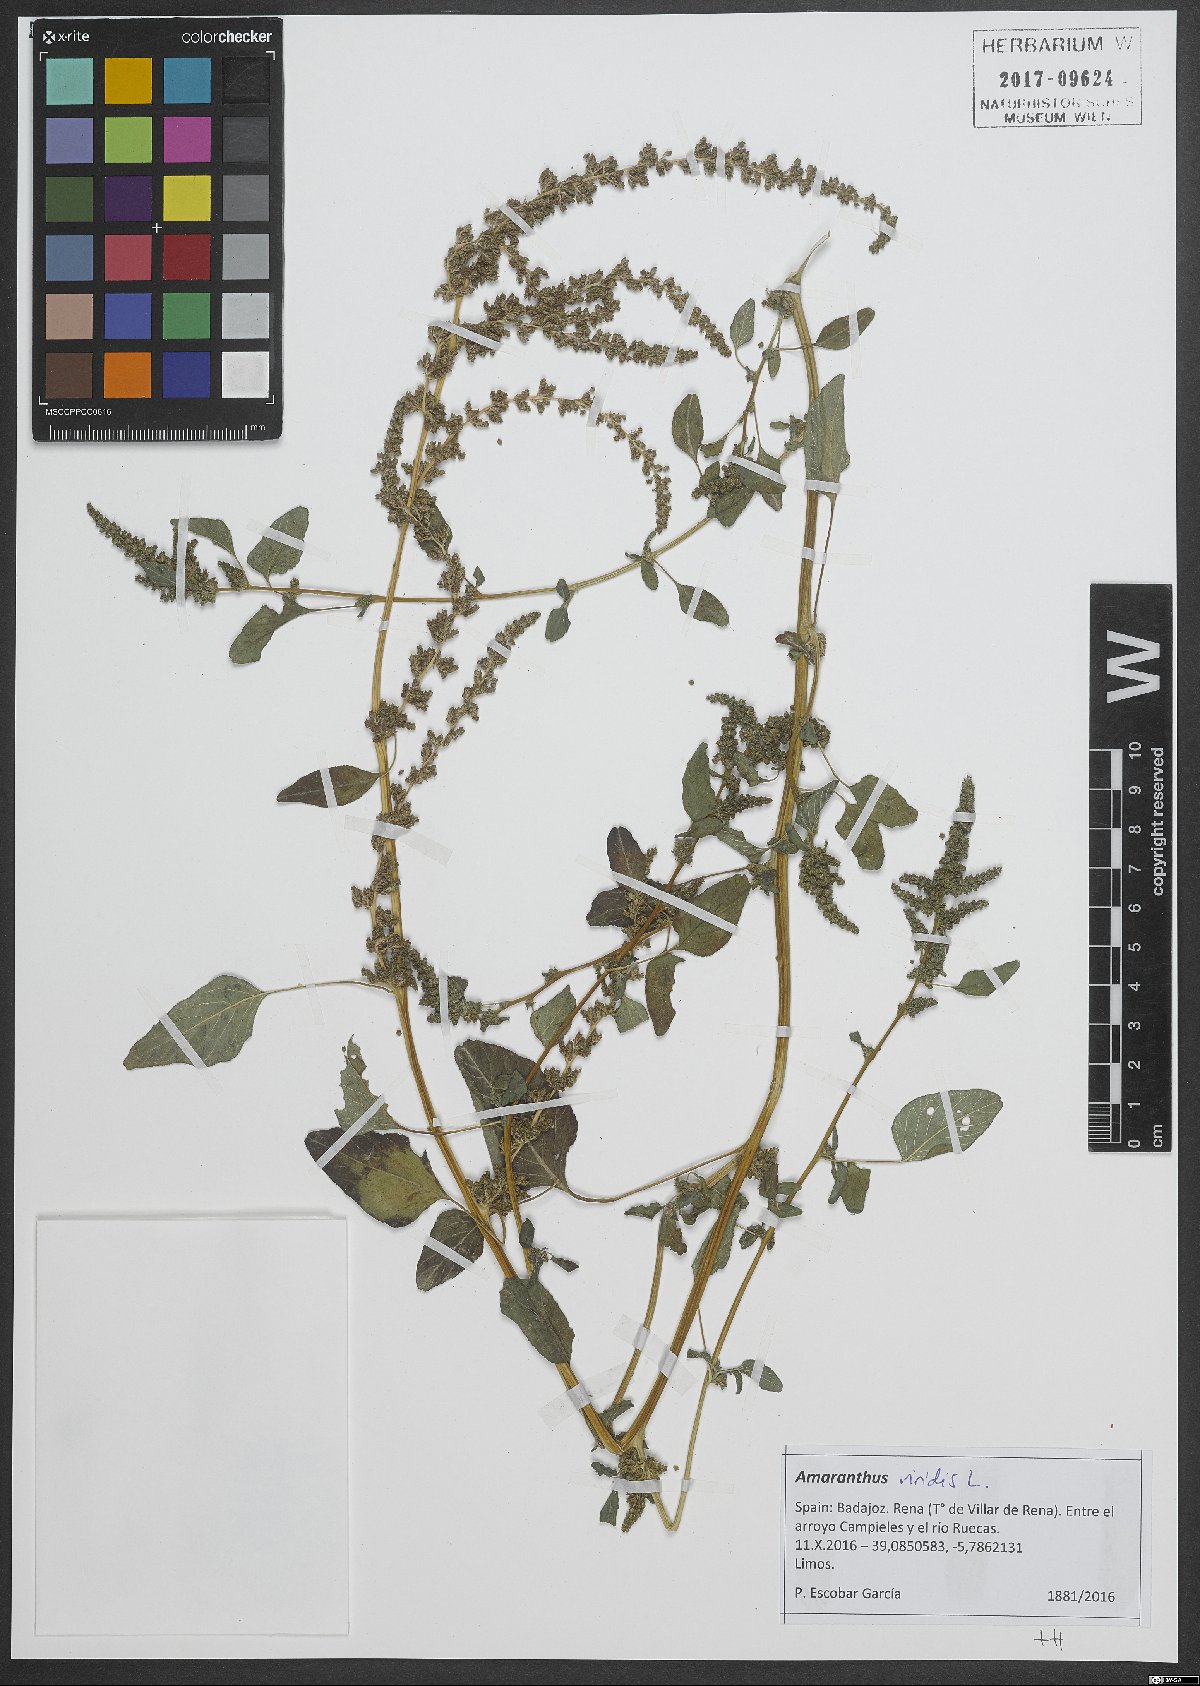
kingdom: Plantae
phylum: Tracheophyta
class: Magnoliopsida
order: Caryophyllales
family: Amaranthaceae
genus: Amaranthus
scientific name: Amaranthus viridis
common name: Slender amaranth
